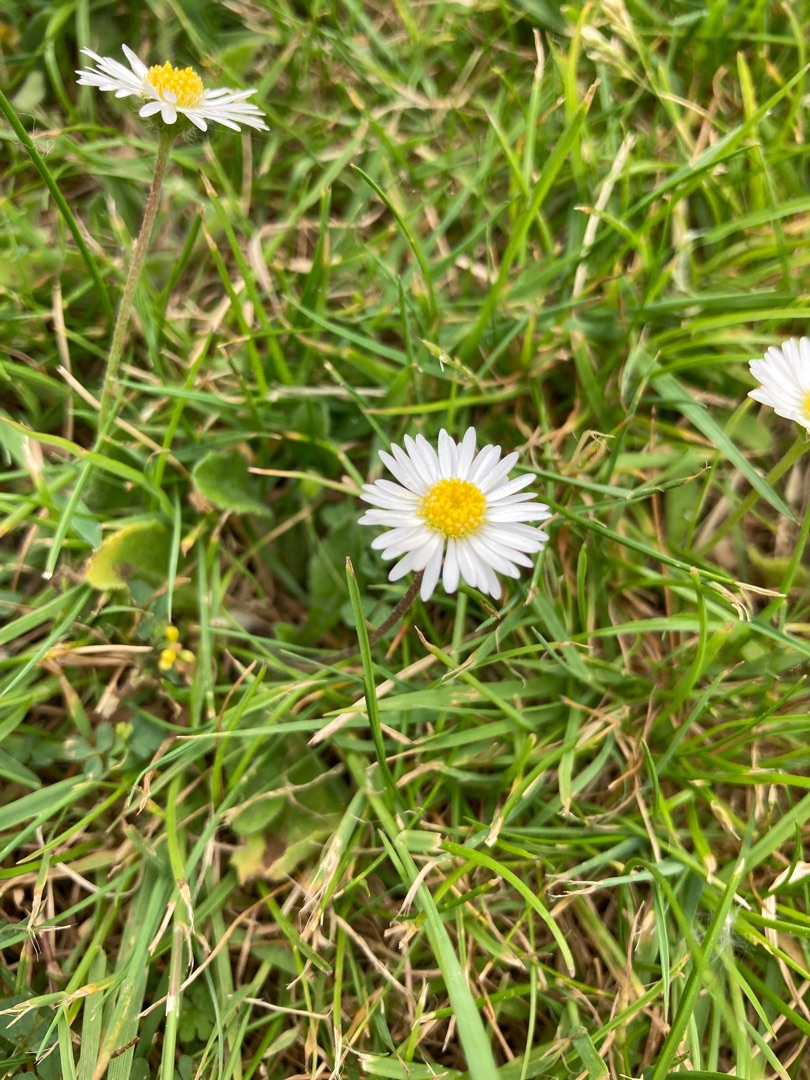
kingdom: Plantae
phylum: Tracheophyta
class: Magnoliopsida
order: Asterales
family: Asteraceae
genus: Bellis
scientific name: Bellis perennis
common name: Tusindfryd
